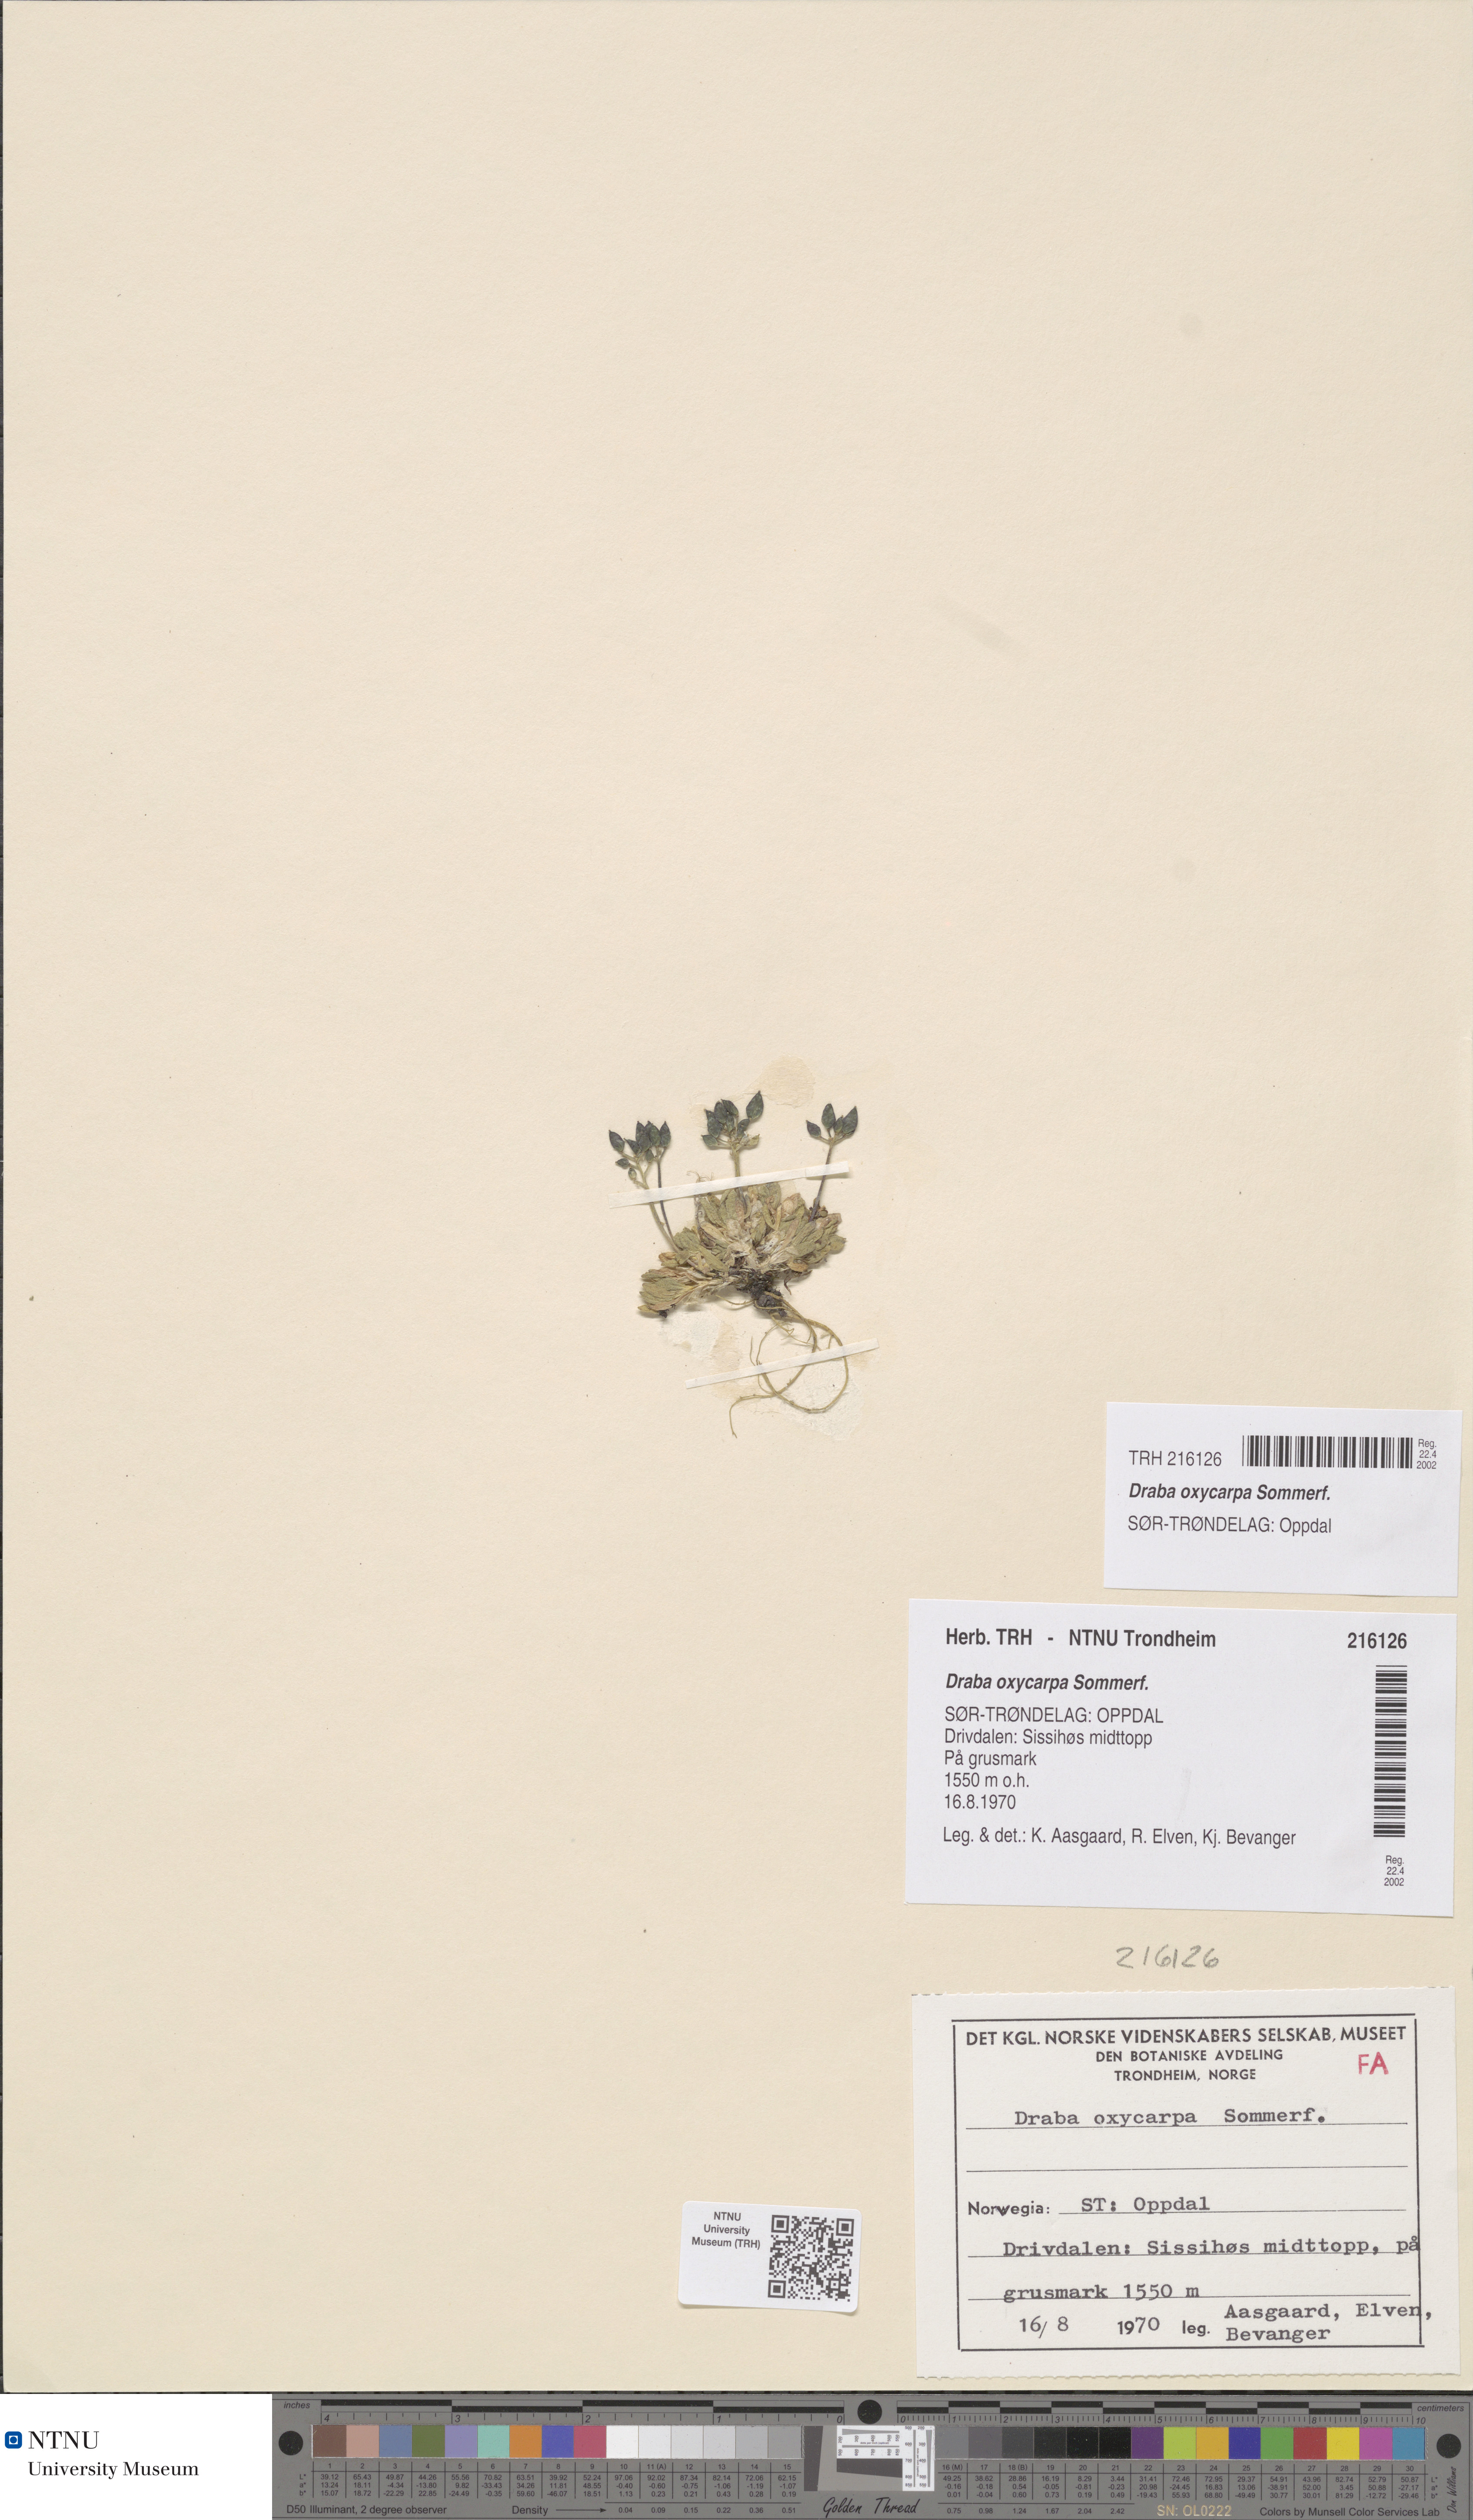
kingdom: Plantae
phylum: Tracheophyta
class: Magnoliopsida
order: Brassicales
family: Brassicaceae
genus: Draba
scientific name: Draba oxycarpa
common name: Sharp-fruited whitlow-grass
